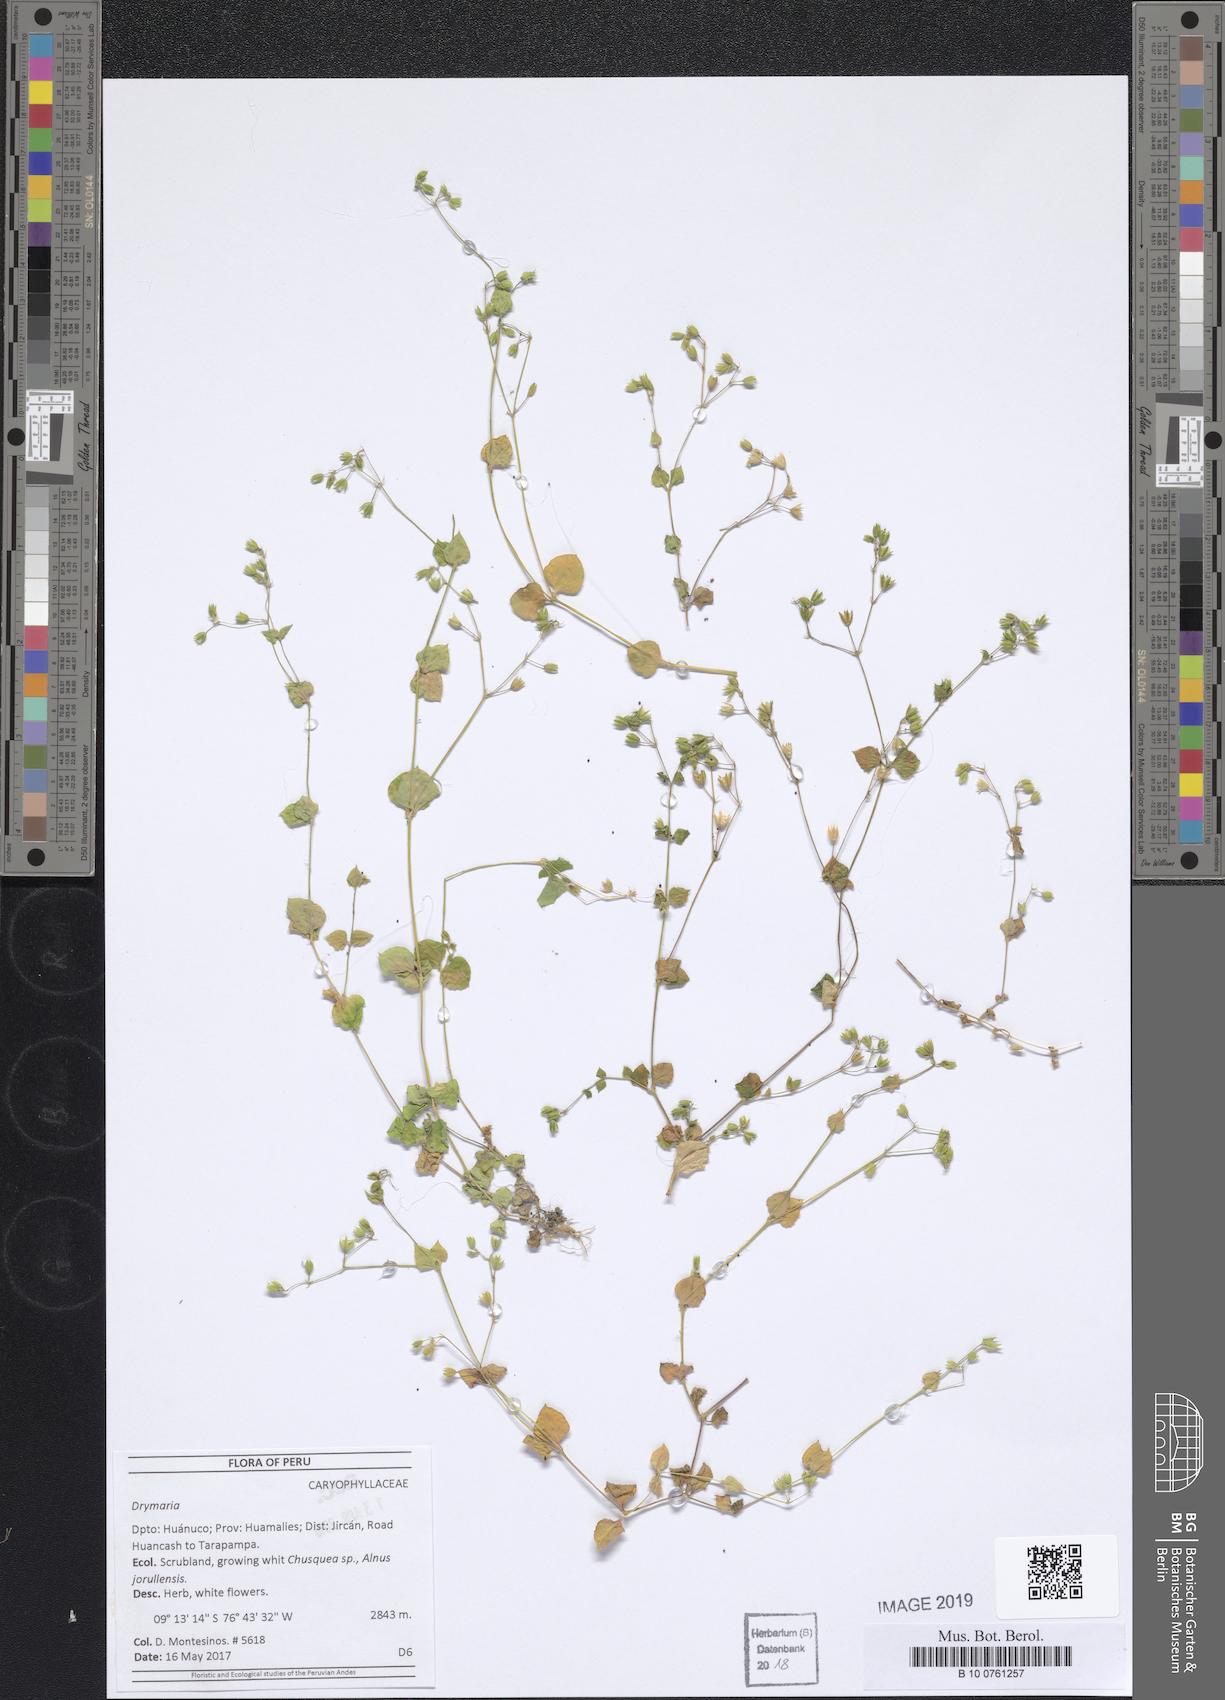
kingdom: Plantae
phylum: Tracheophyta
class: Magnoliopsida
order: Caryophyllales
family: Caryophyllaceae
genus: Drymaria
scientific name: Drymaria
